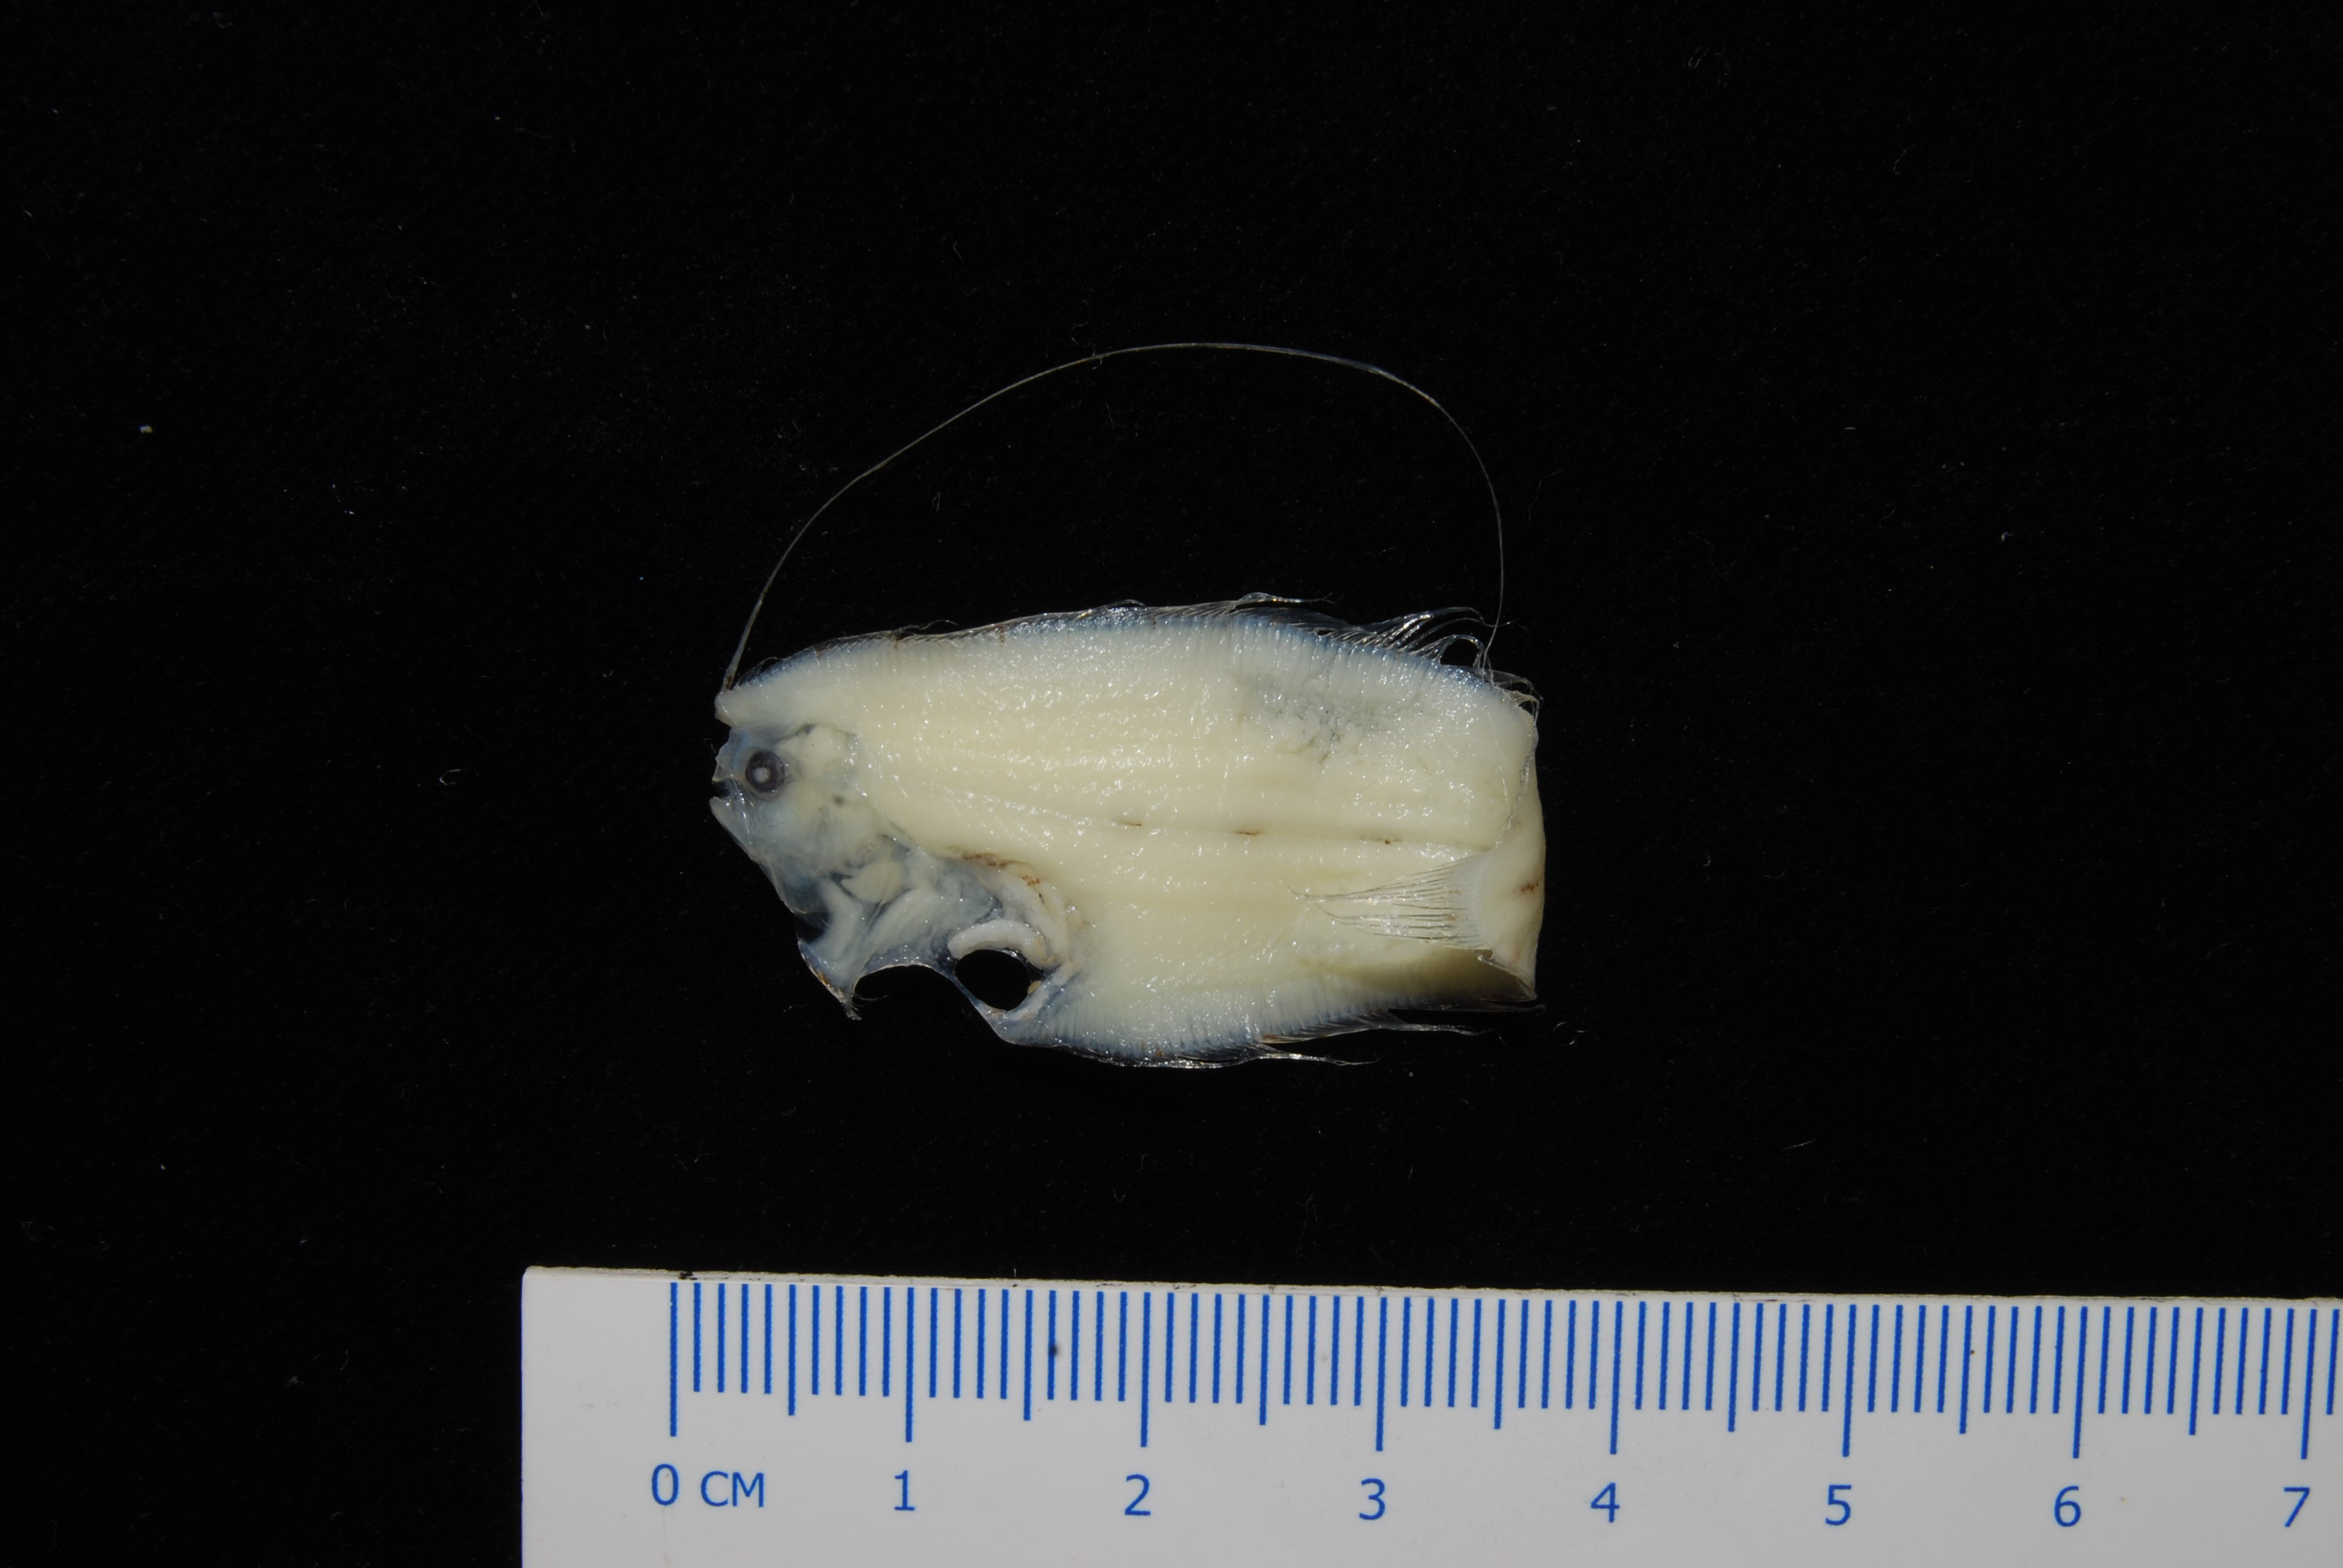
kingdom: Animalia
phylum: Chordata
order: Cypriniformes
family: Cyprinidae
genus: Enteromius
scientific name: Enteromius bifrenatus
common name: Hyphen barb
